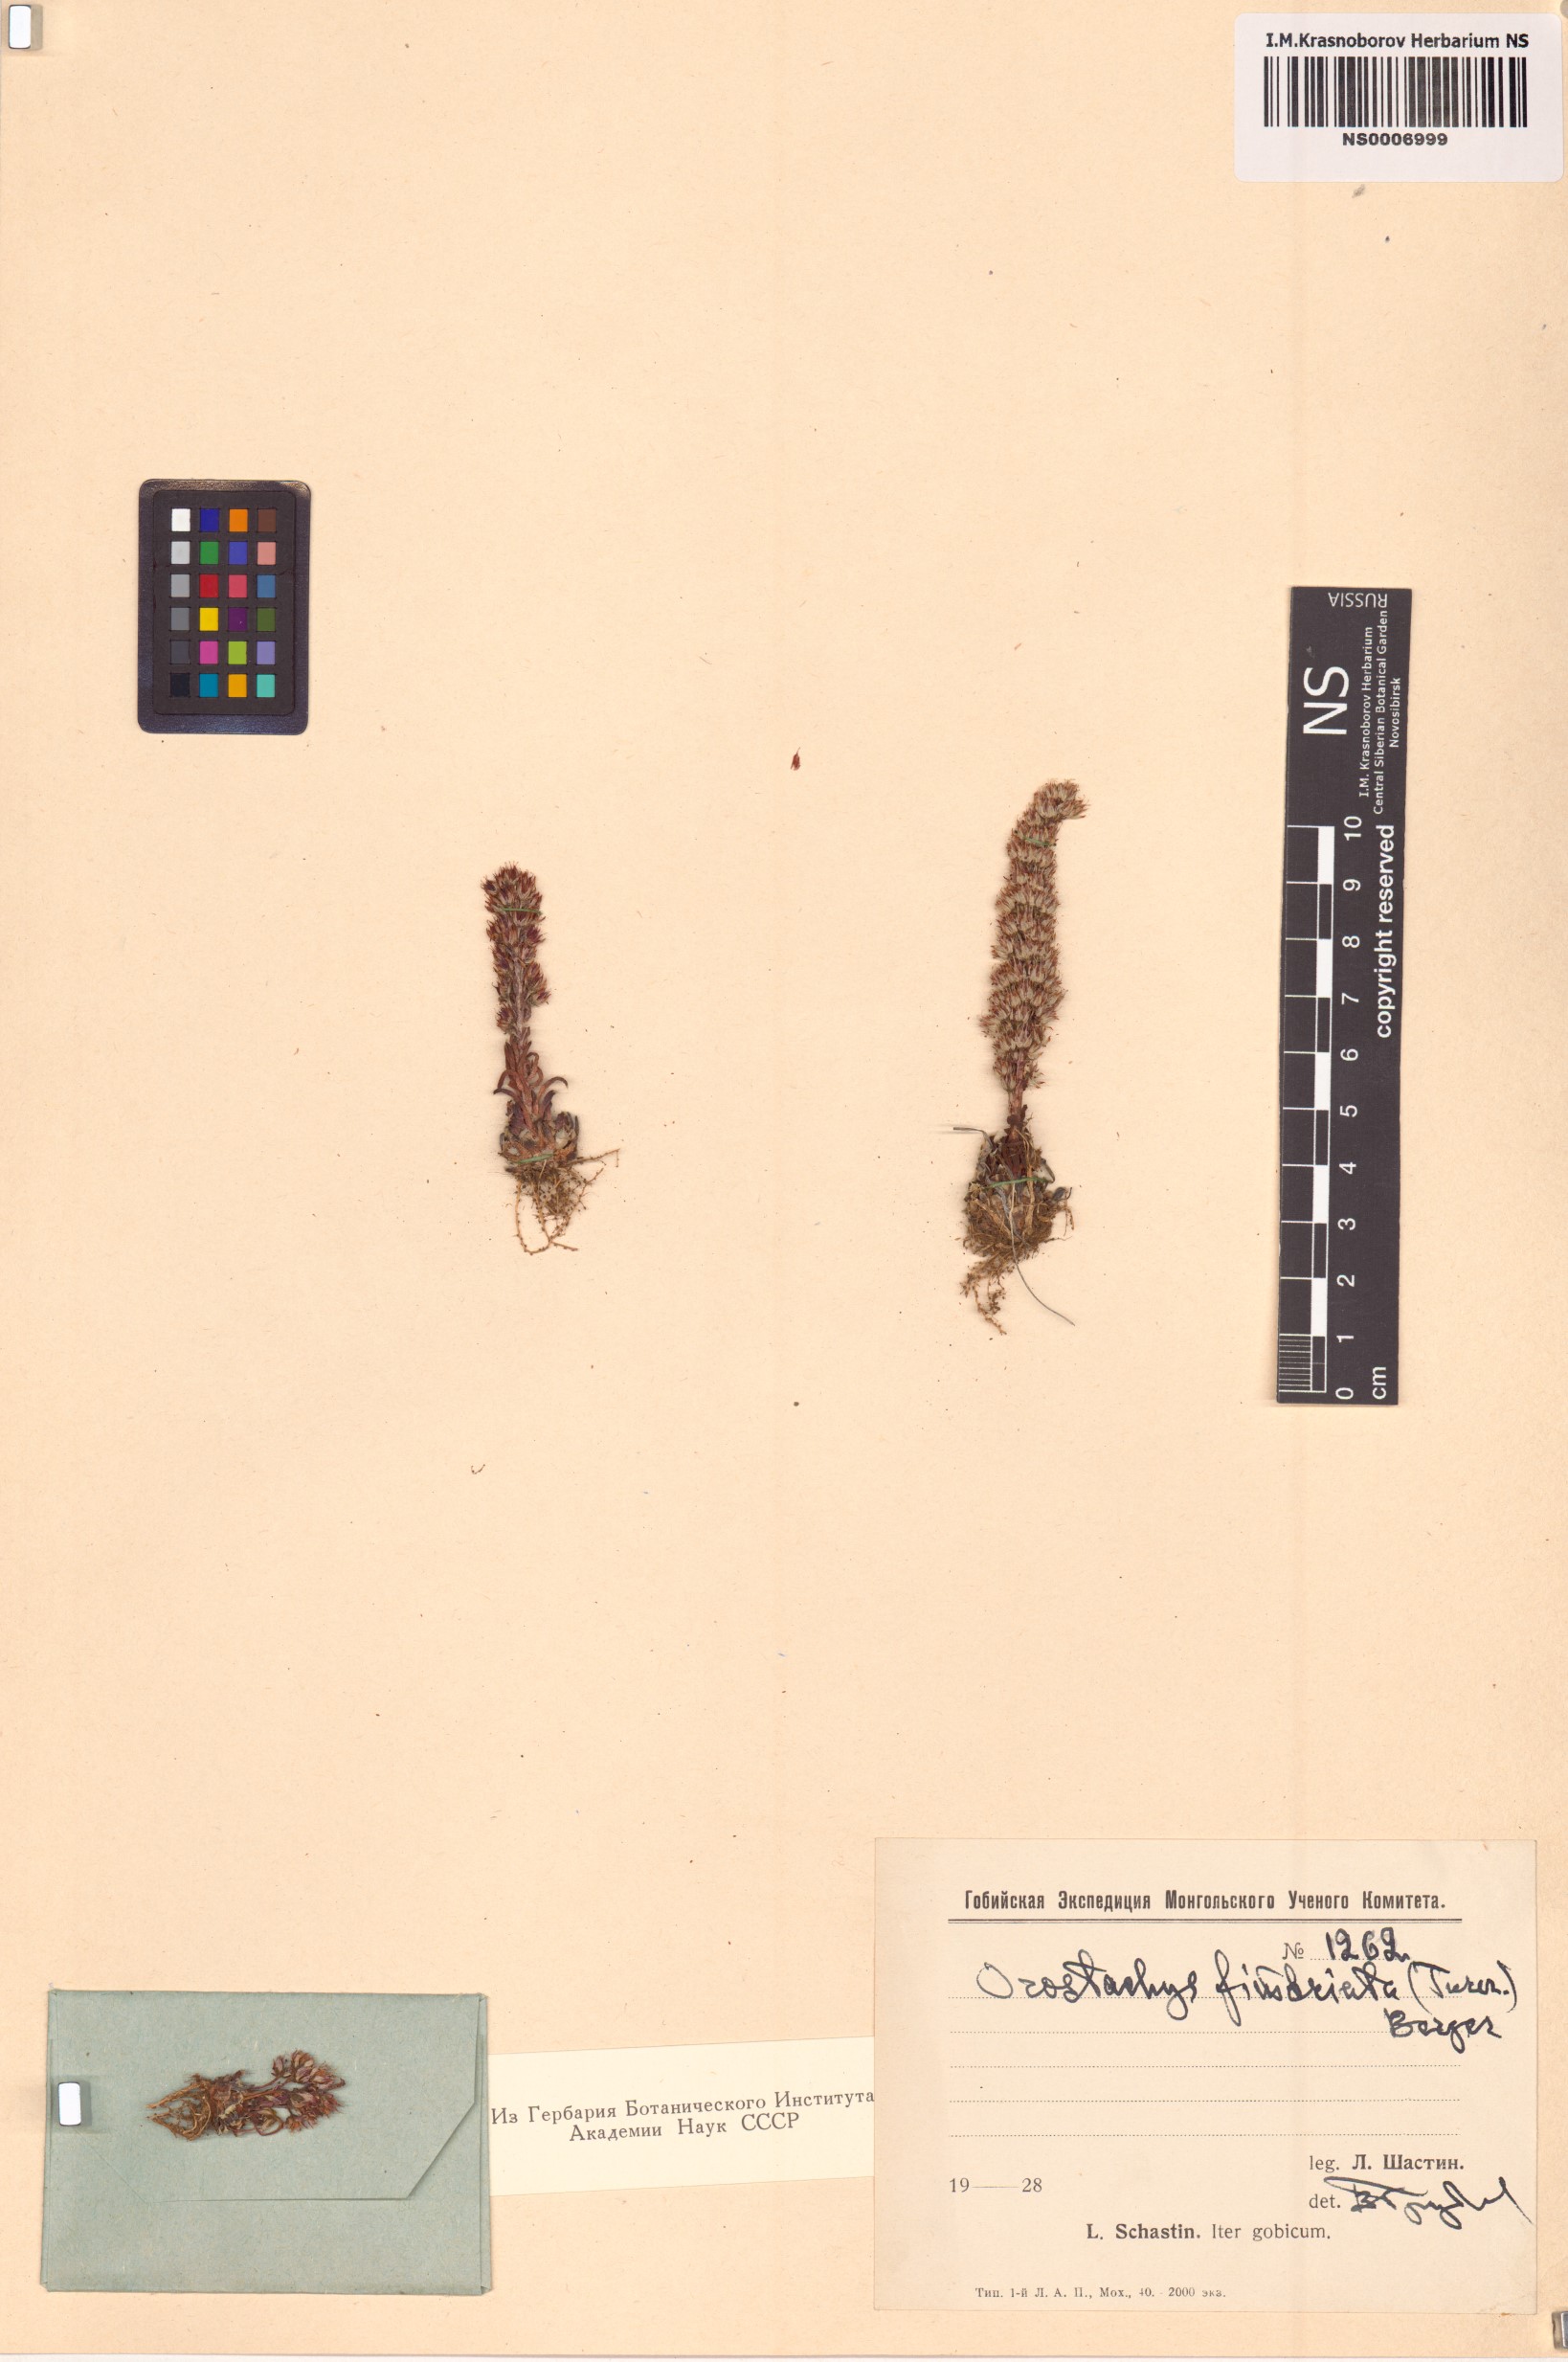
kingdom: Plantae
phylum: Tracheophyta
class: Magnoliopsida
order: Saxifragales
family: Crassulaceae
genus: Orostachys
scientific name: Orostachys fimbriata
